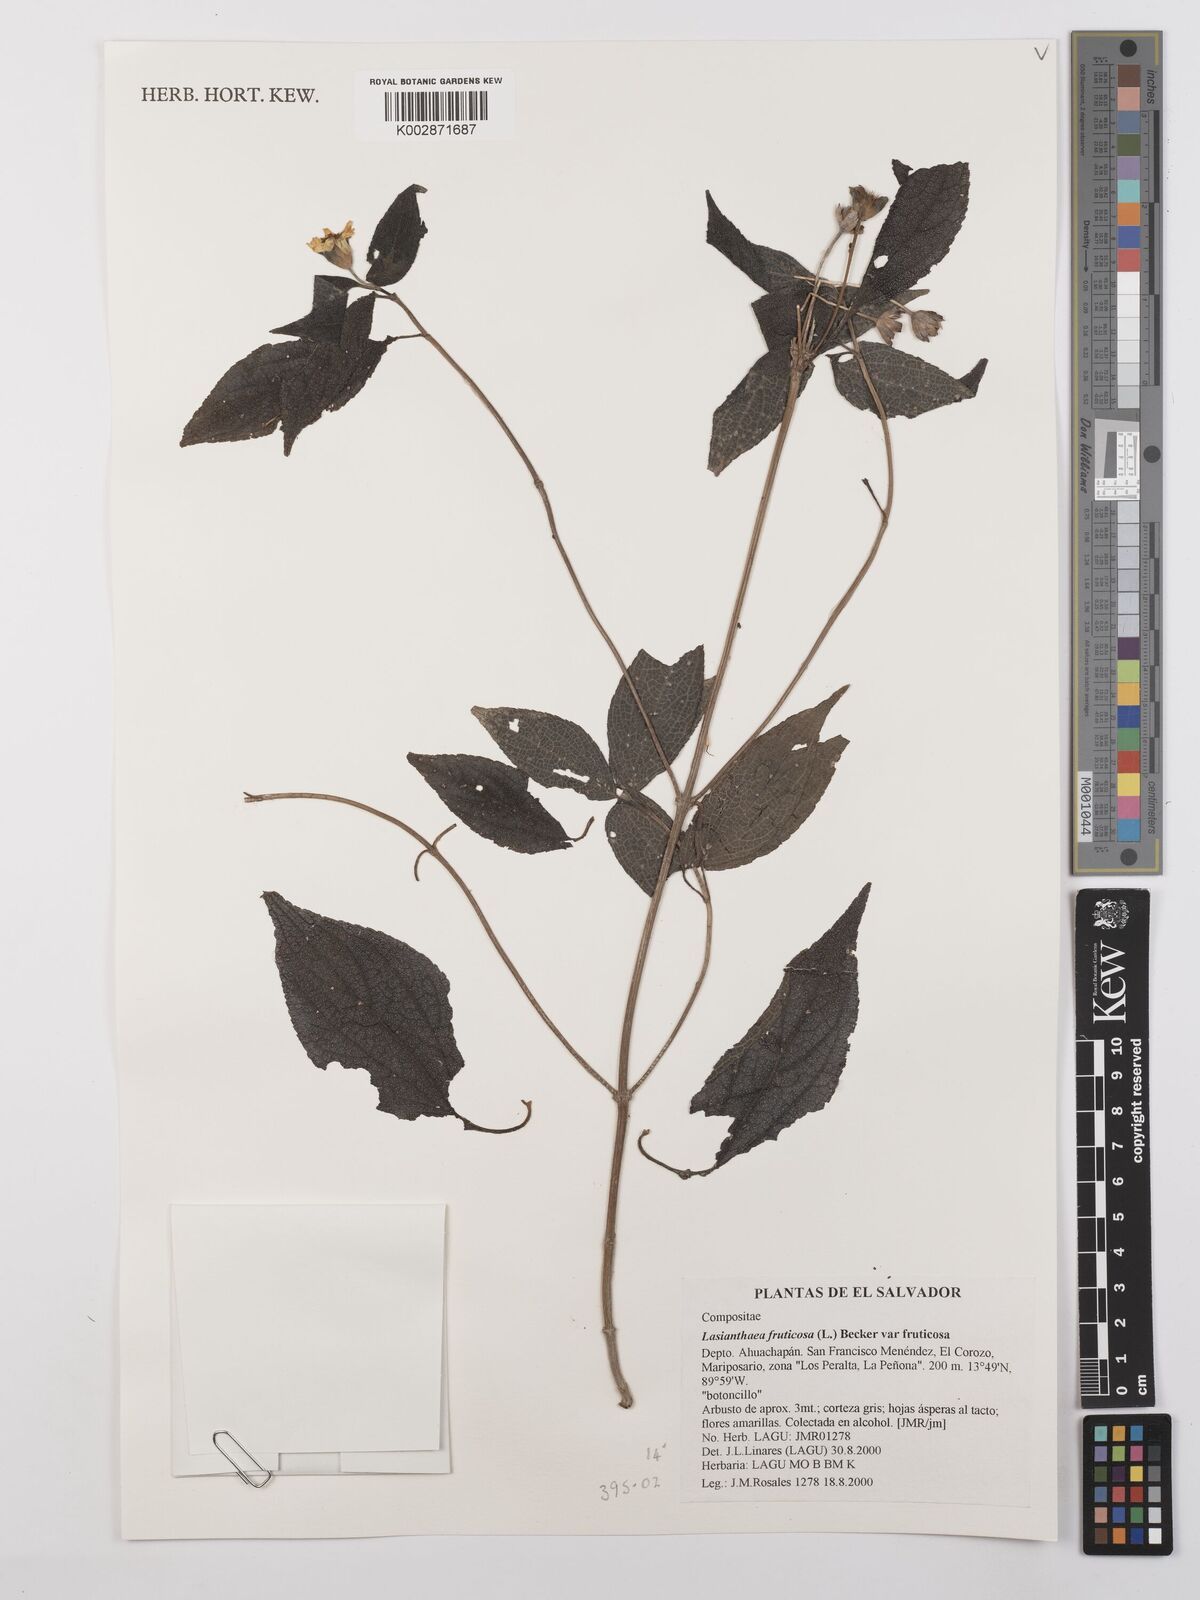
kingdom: Plantae
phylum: Tracheophyta
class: Magnoliopsida
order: Asterales
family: Asteraceae
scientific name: Asteraceae
